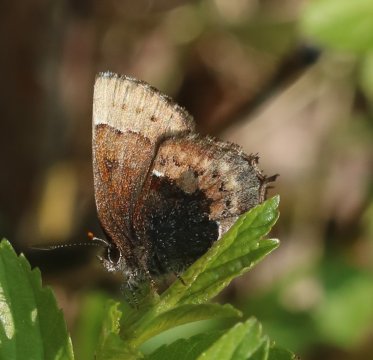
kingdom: Animalia
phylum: Arthropoda
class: Insecta
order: Lepidoptera
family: Lycaenidae
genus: Incisalia
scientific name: Incisalia henrici
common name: Henry's Elfin
